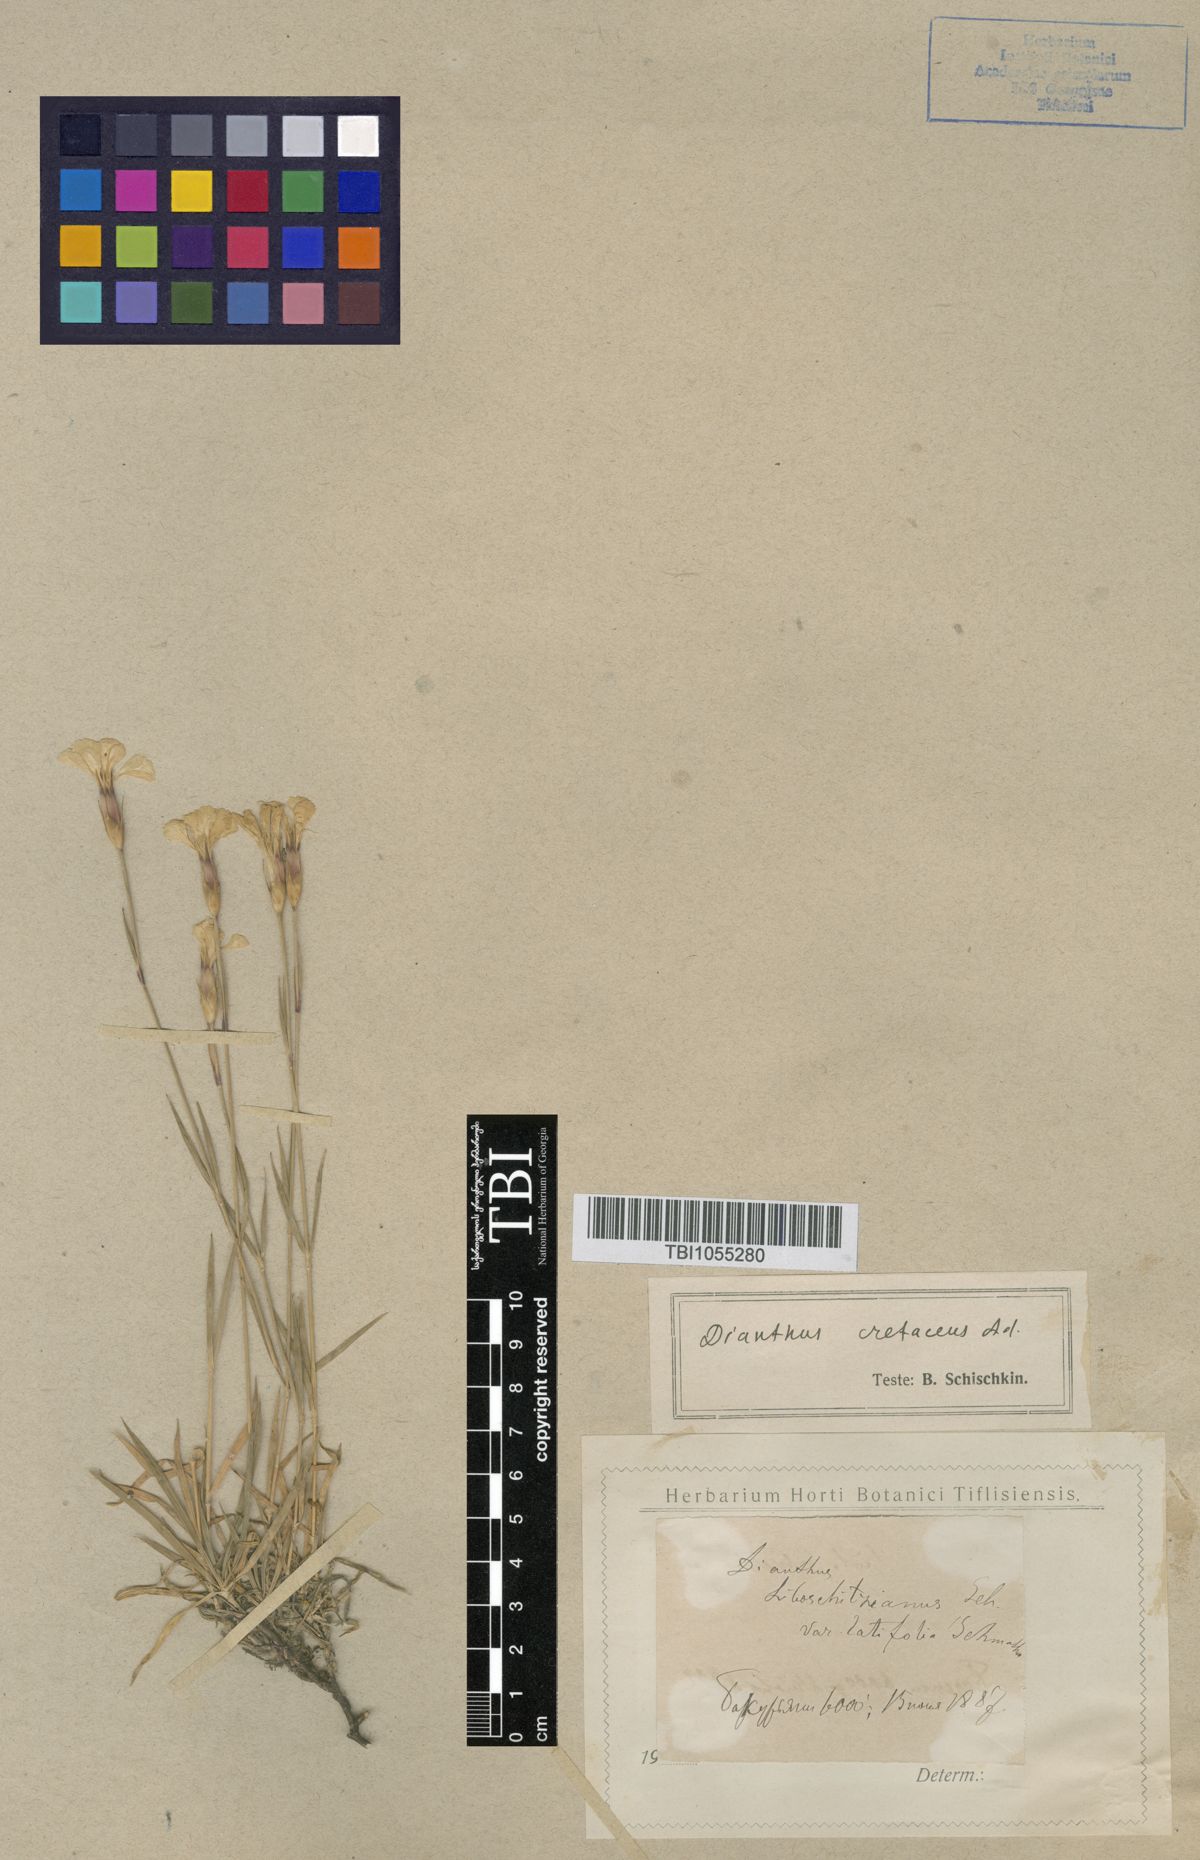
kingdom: Plantae
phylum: Tracheophyta
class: Magnoliopsida
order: Caryophyllales
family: Caryophyllaceae
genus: Dianthus
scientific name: Dianthus cretaceus
